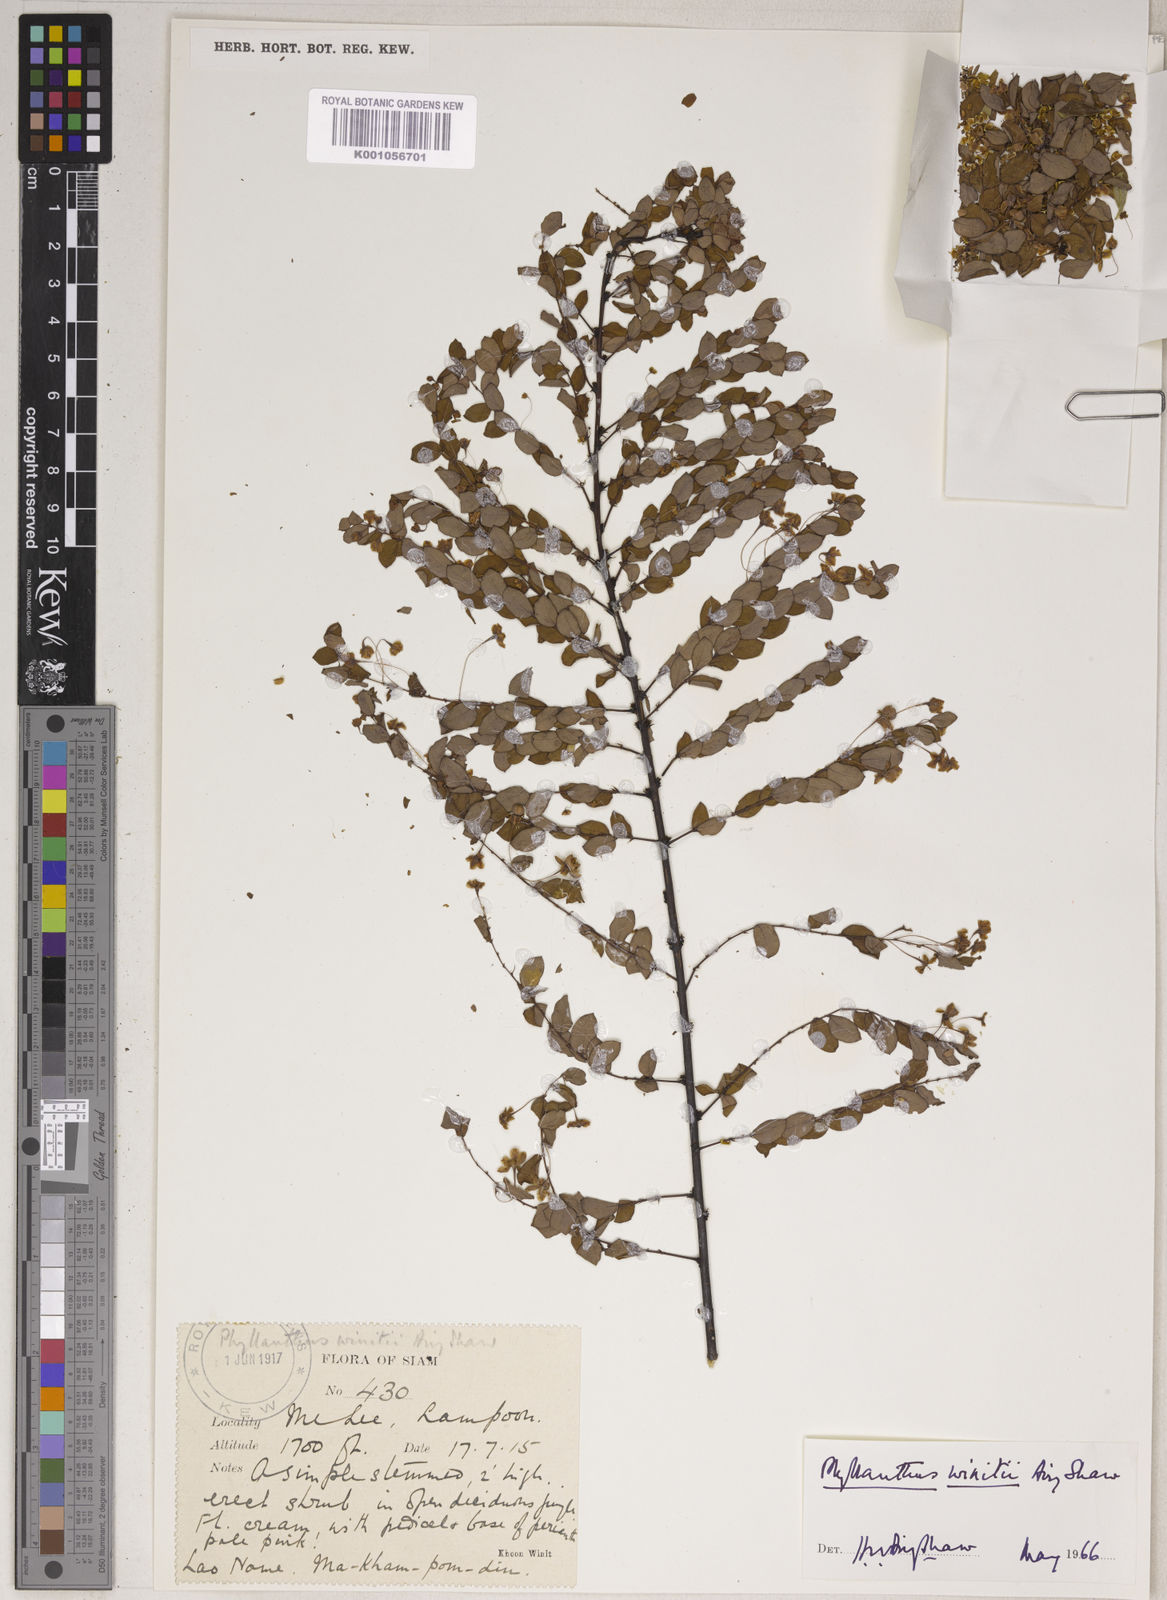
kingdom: Plantae
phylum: Tracheophyta
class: Magnoliopsida
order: Malpighiales
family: Phyllanthaceae
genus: Phyllanthus
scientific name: Phyllanthus sootepensis
